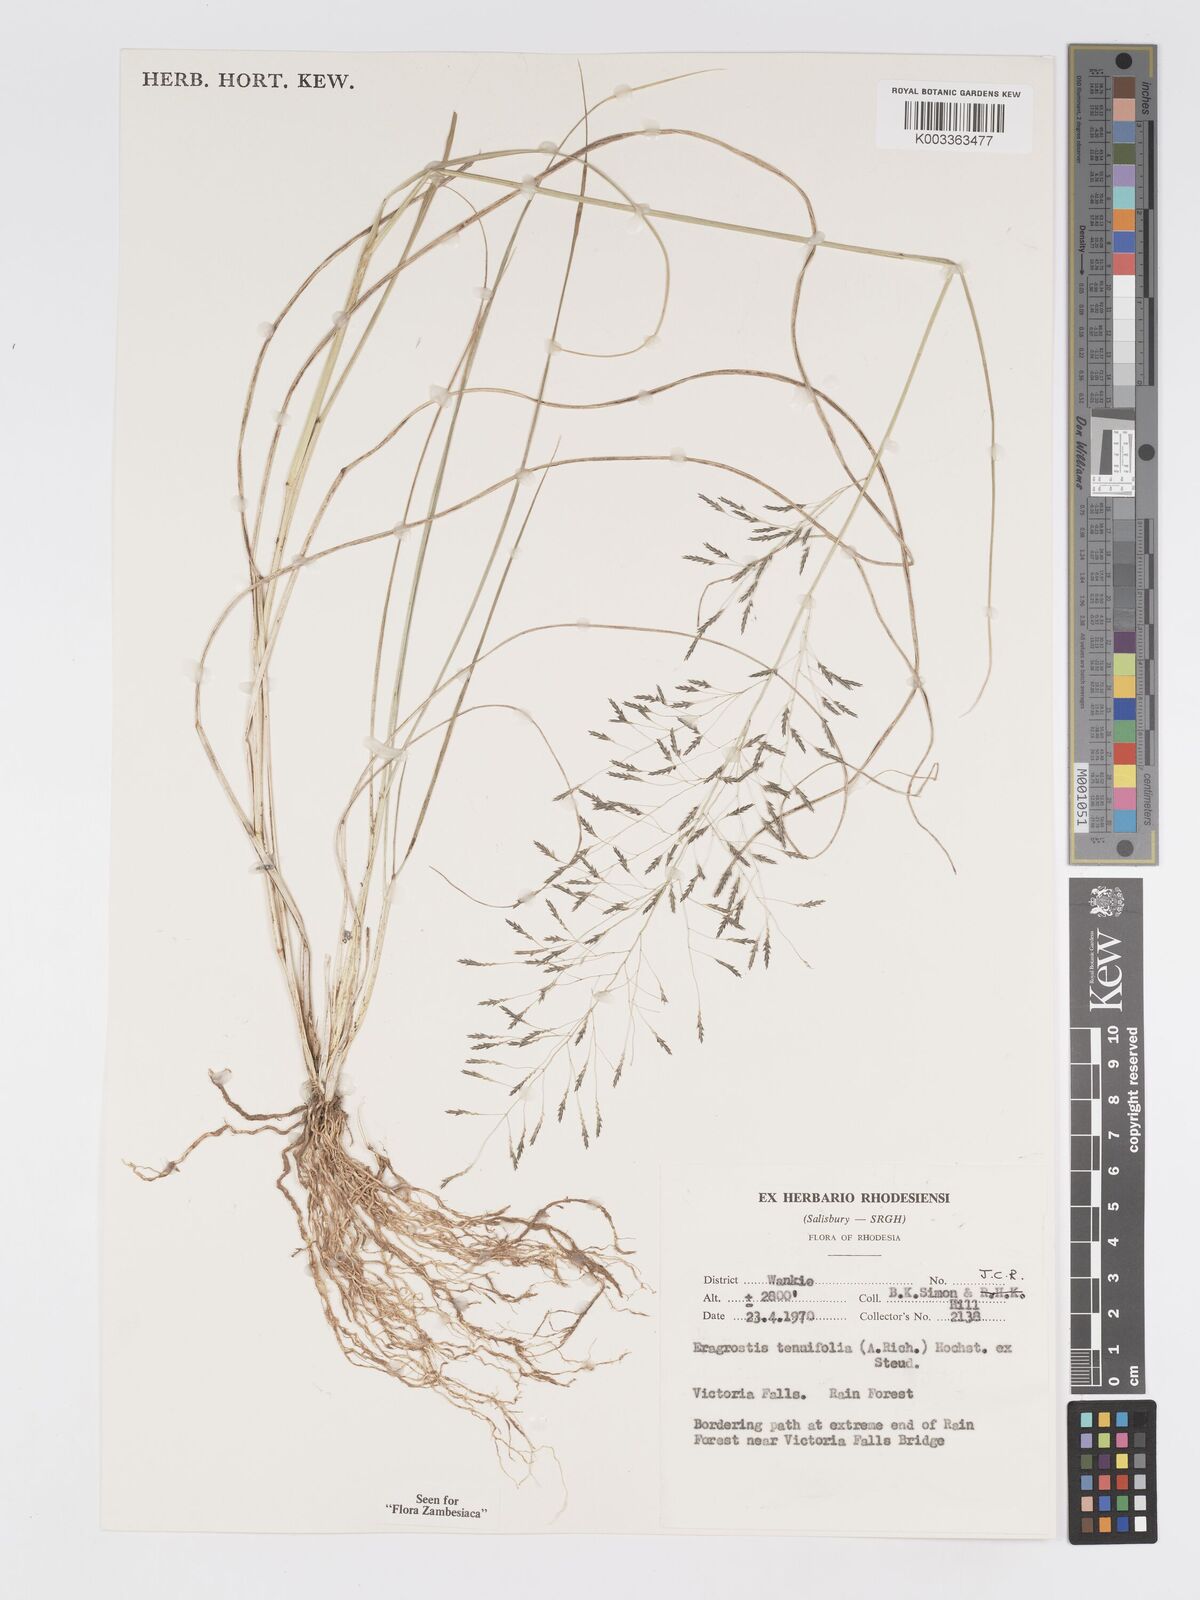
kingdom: Plantae
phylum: Tracheophyta
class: Liliopsida
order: Poales
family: Poaceae
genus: Eragrostis
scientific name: Eragrostis tenuifolia
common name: Elastic grass
